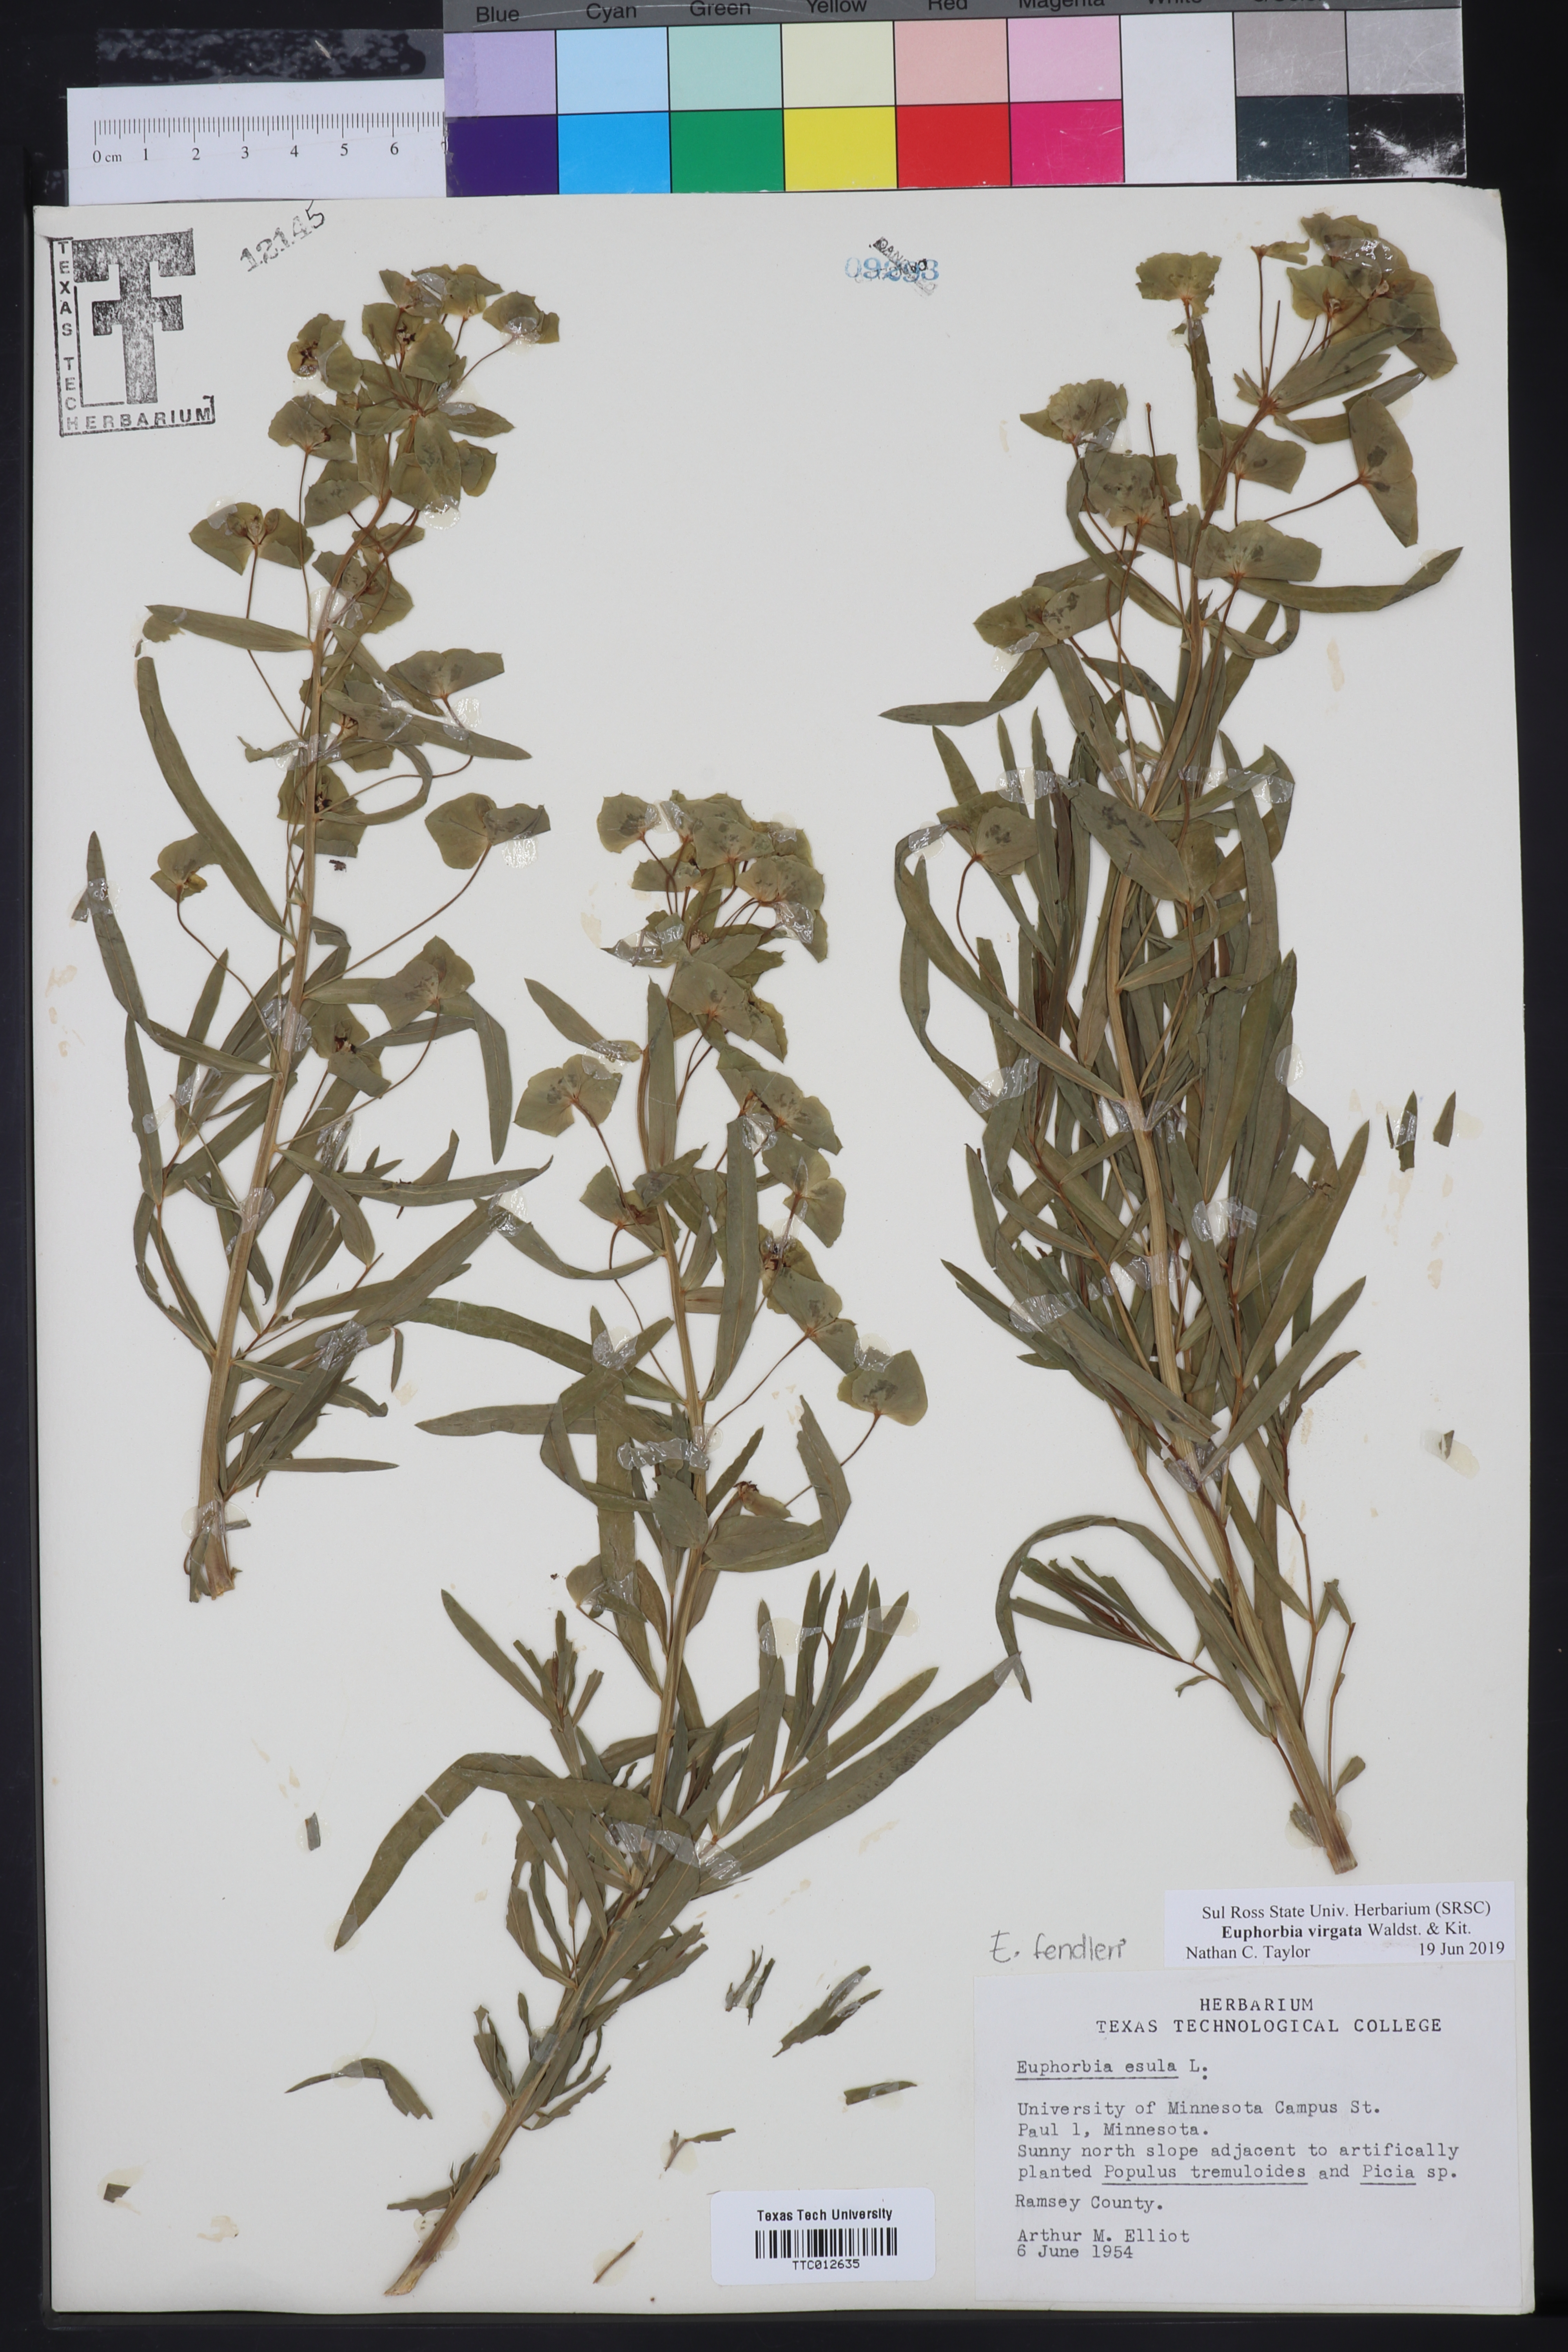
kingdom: Plantae
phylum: Tracheophyta
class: Magnoliopsida
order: Malpighiales
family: Euphorbiaceae
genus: Euphorbia
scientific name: Euphorbia virgata
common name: Leafy spurge
